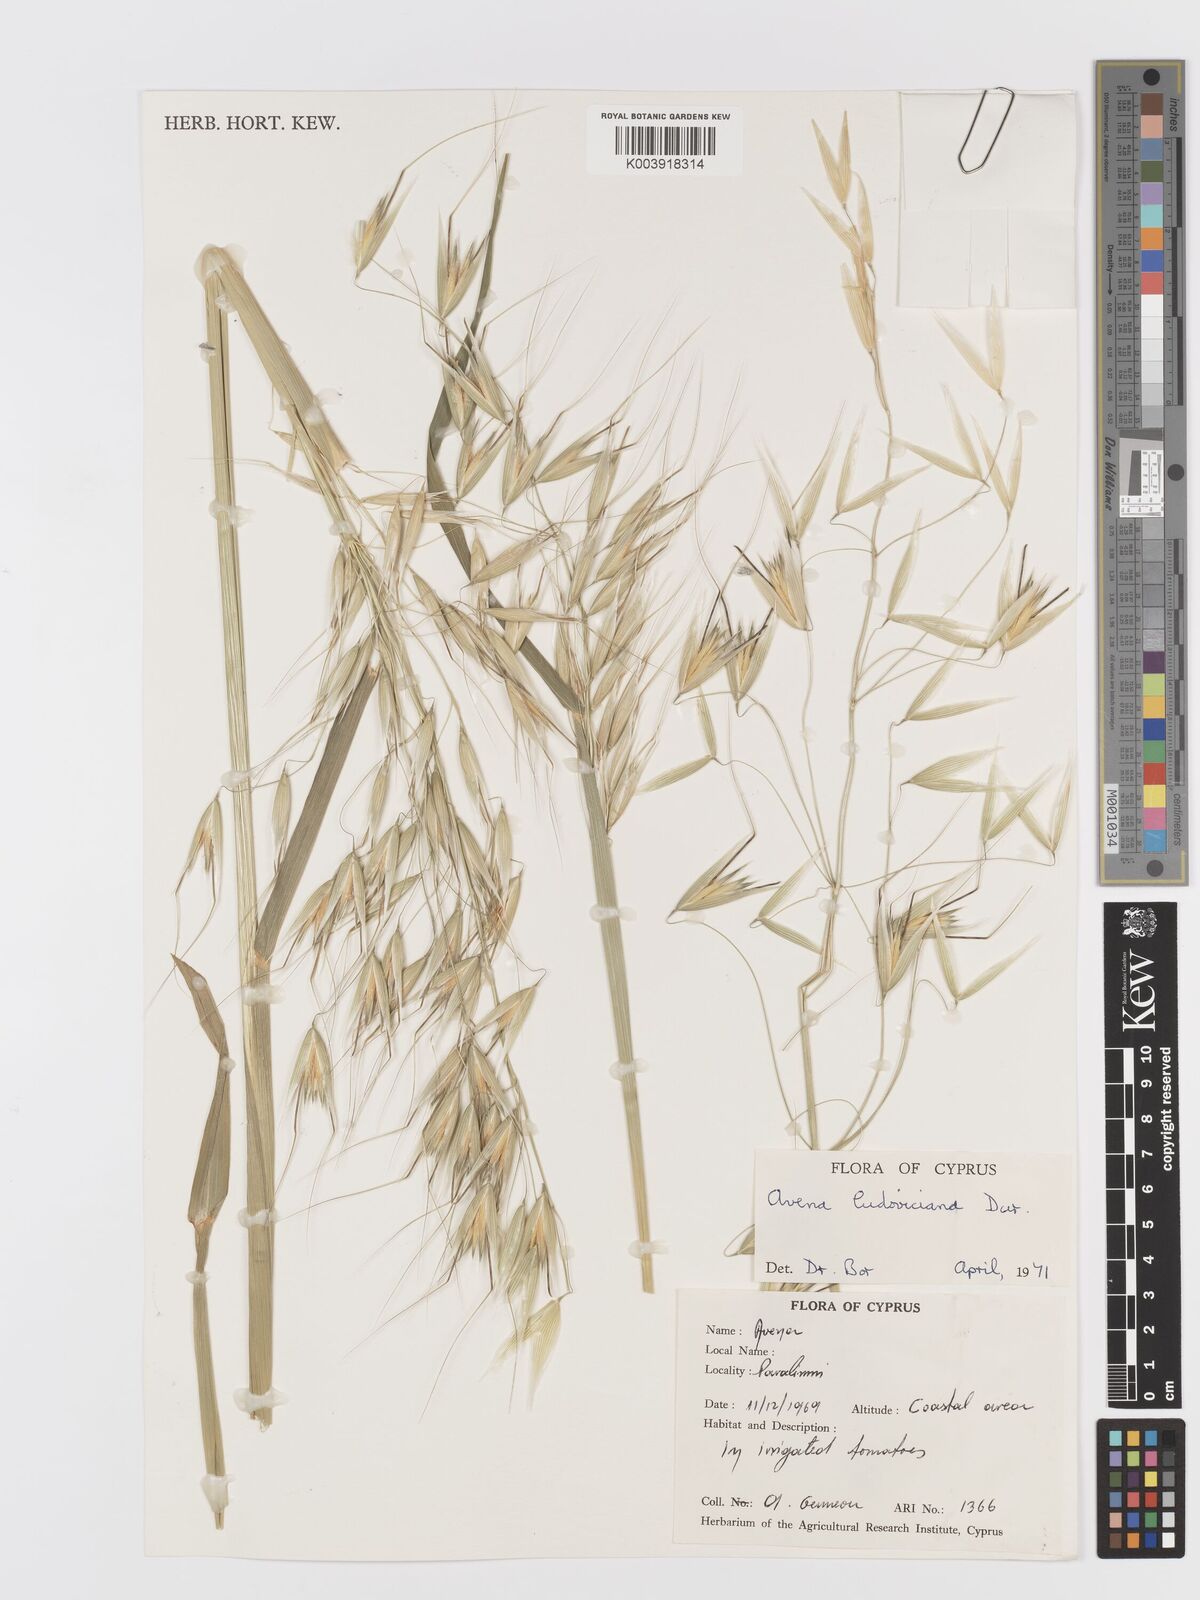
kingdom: Plantae
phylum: Tracheophyta
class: Liliopsida
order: Poales
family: Poaceae
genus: Avena
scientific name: Avena sterilis
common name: Animated oat
